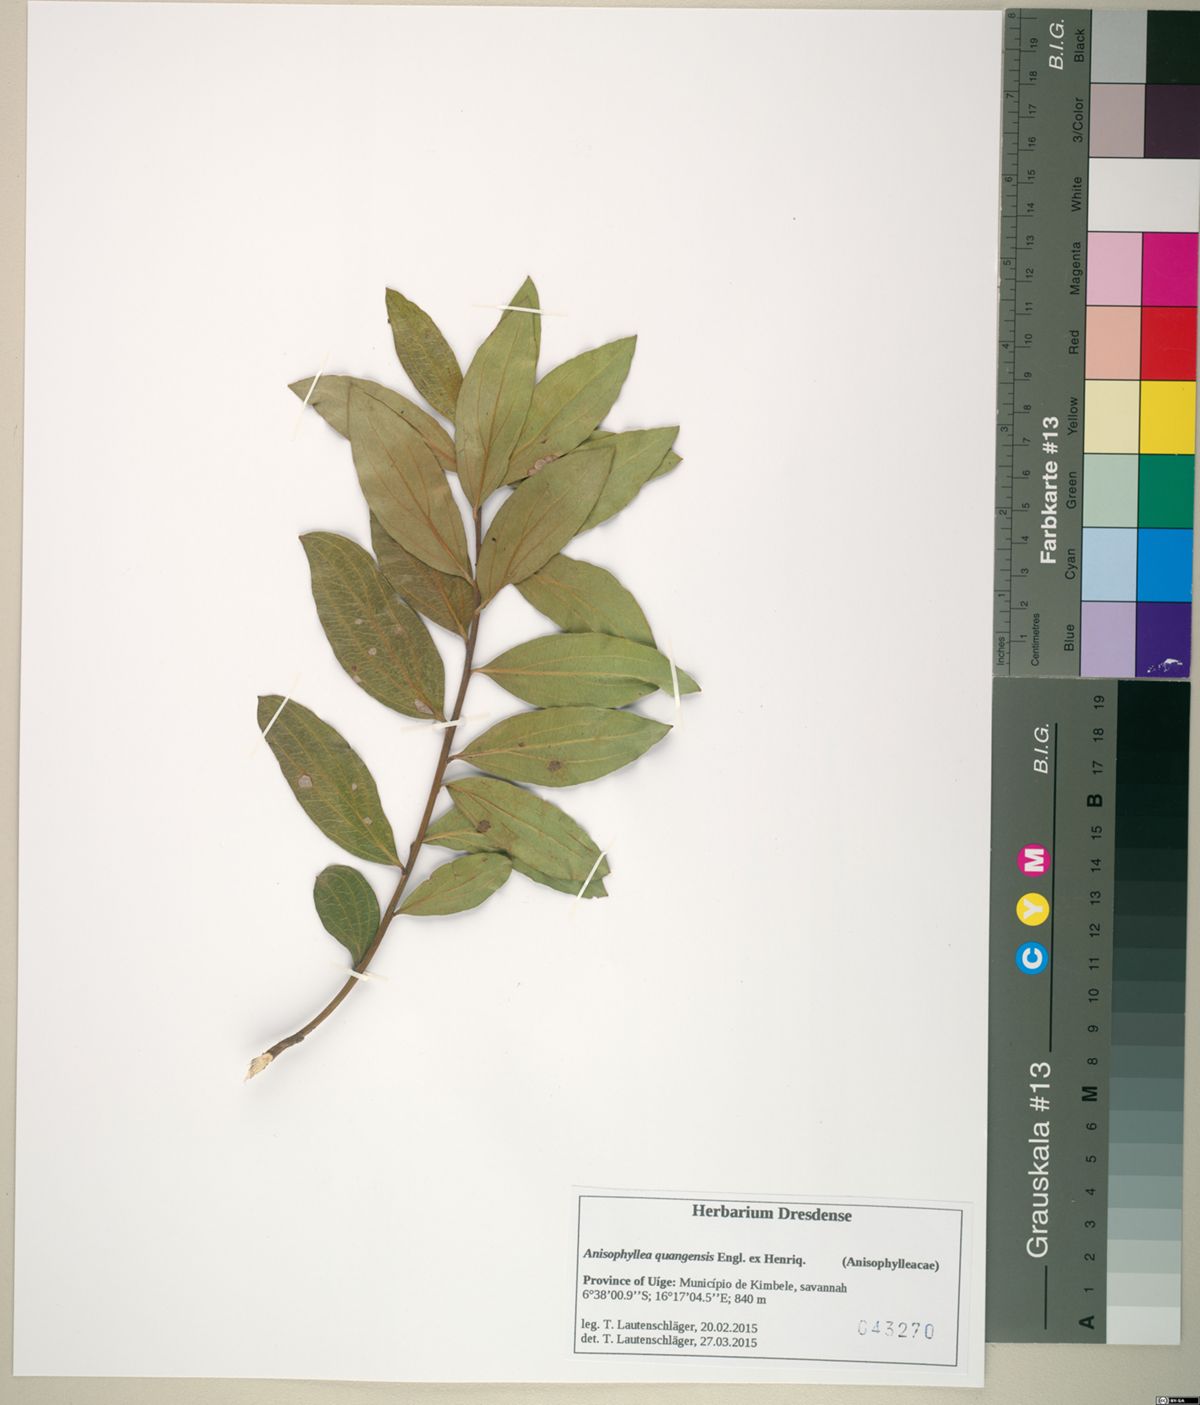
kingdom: Plantae
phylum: Tracheophyta
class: Magnoliopsida
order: Cucurbitales
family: Anisophylleaceae
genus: Anisophyllea
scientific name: Anisophyllea quangensis
